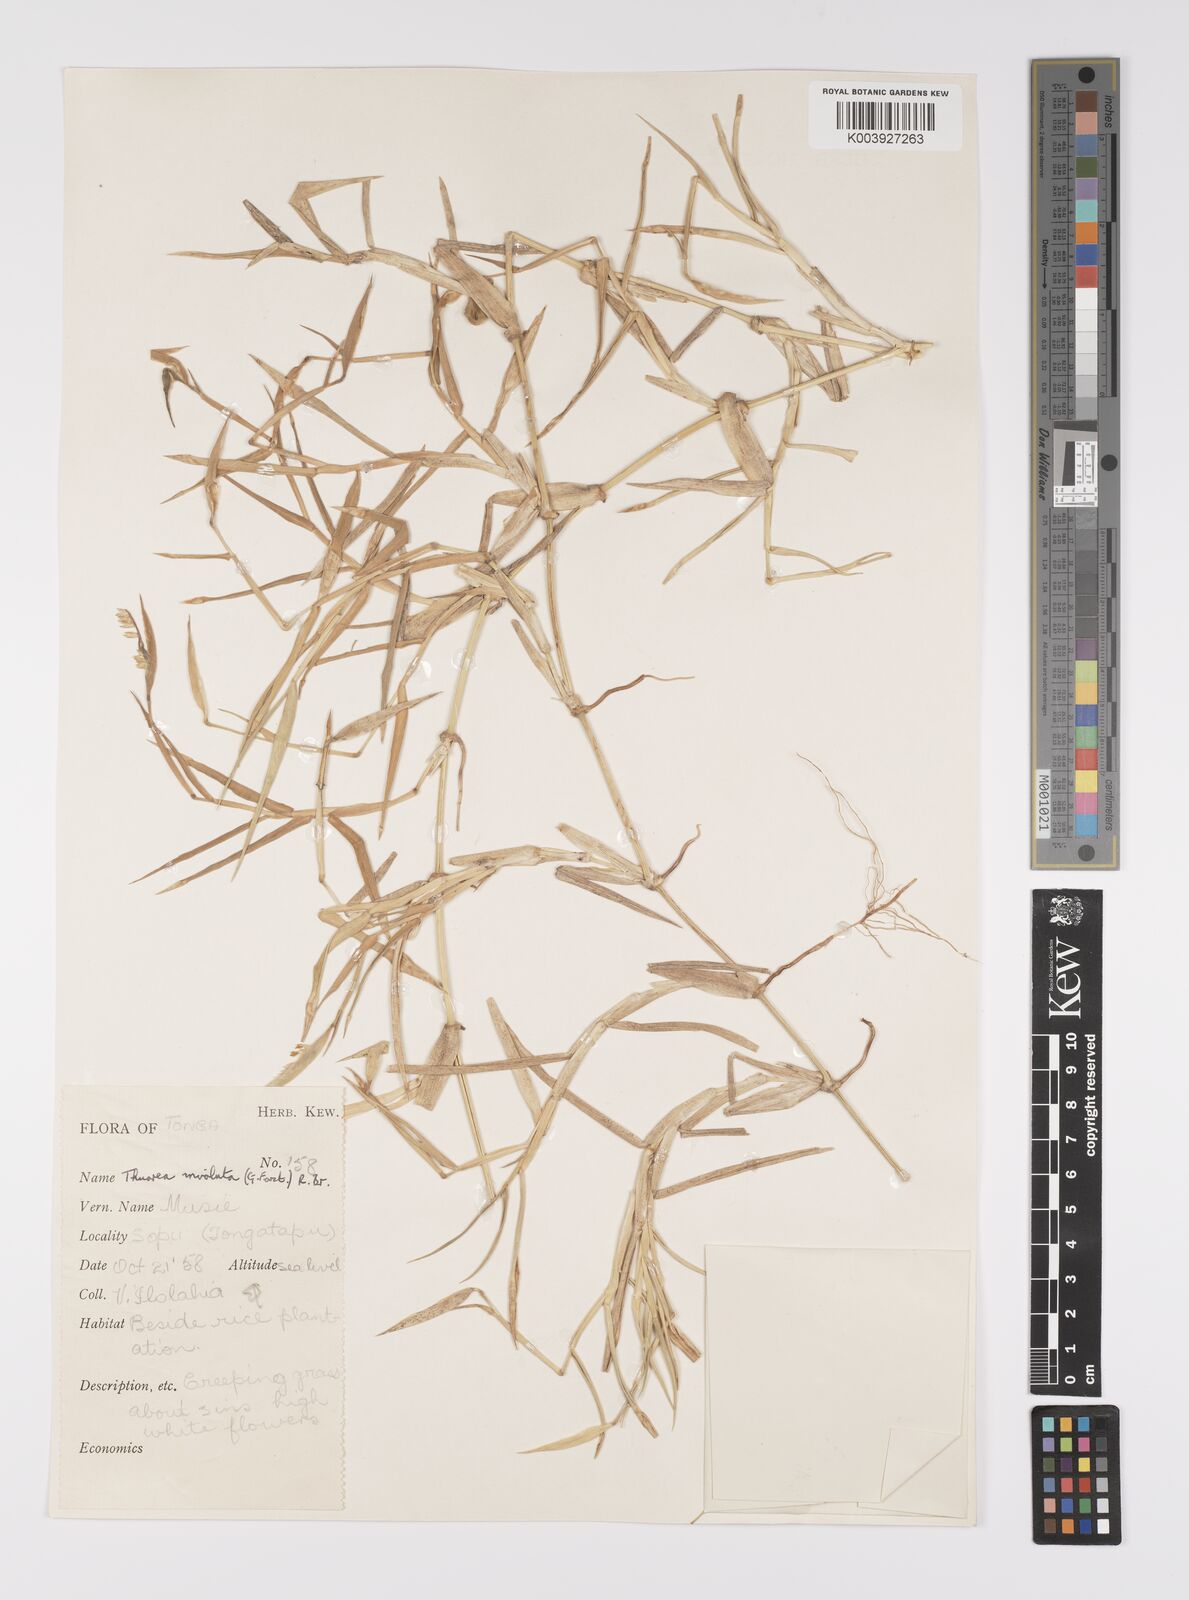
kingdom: Plantae
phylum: Tracheophyta
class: Liliopsida
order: Poales
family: Poaceae
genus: Thuarea
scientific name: Thuarea involuta
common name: Tropical beach grass
